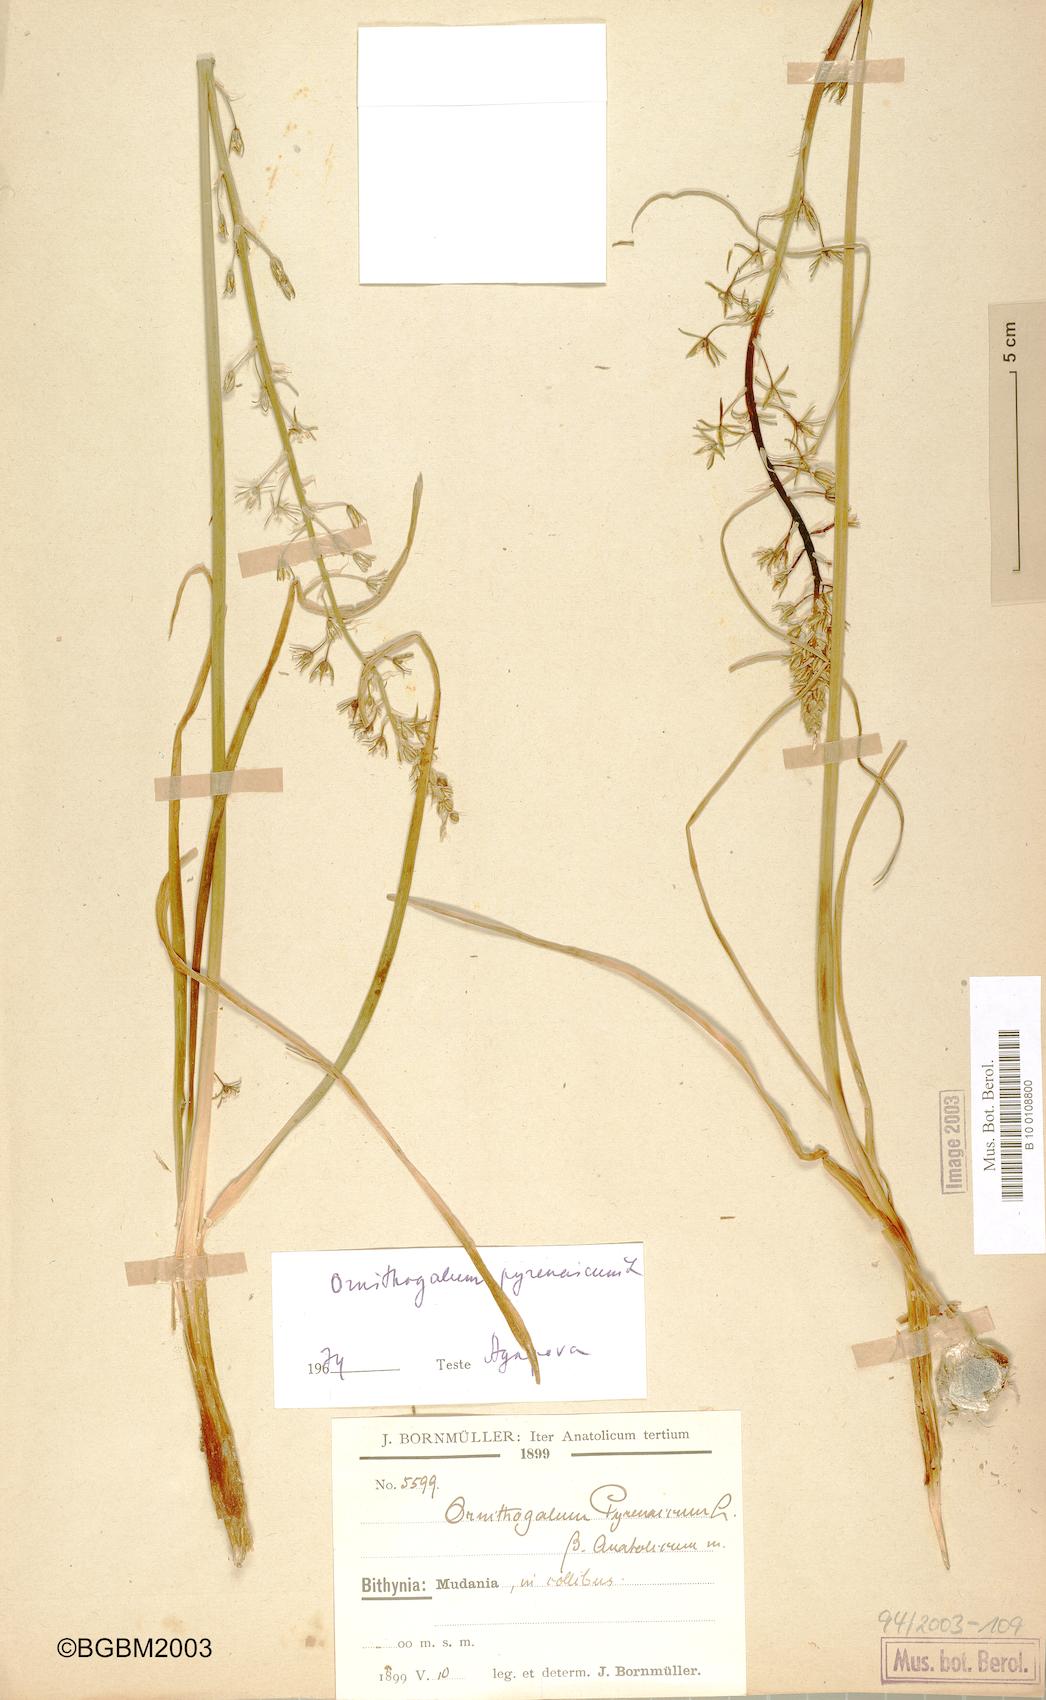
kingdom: Plantae
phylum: Tracheophyta
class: Liliopsida
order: Asparagales
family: Asparagaceae
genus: Ornithogalum
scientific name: Ornithogalum pyrenaicum
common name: Spiked star-of-bethlehem
